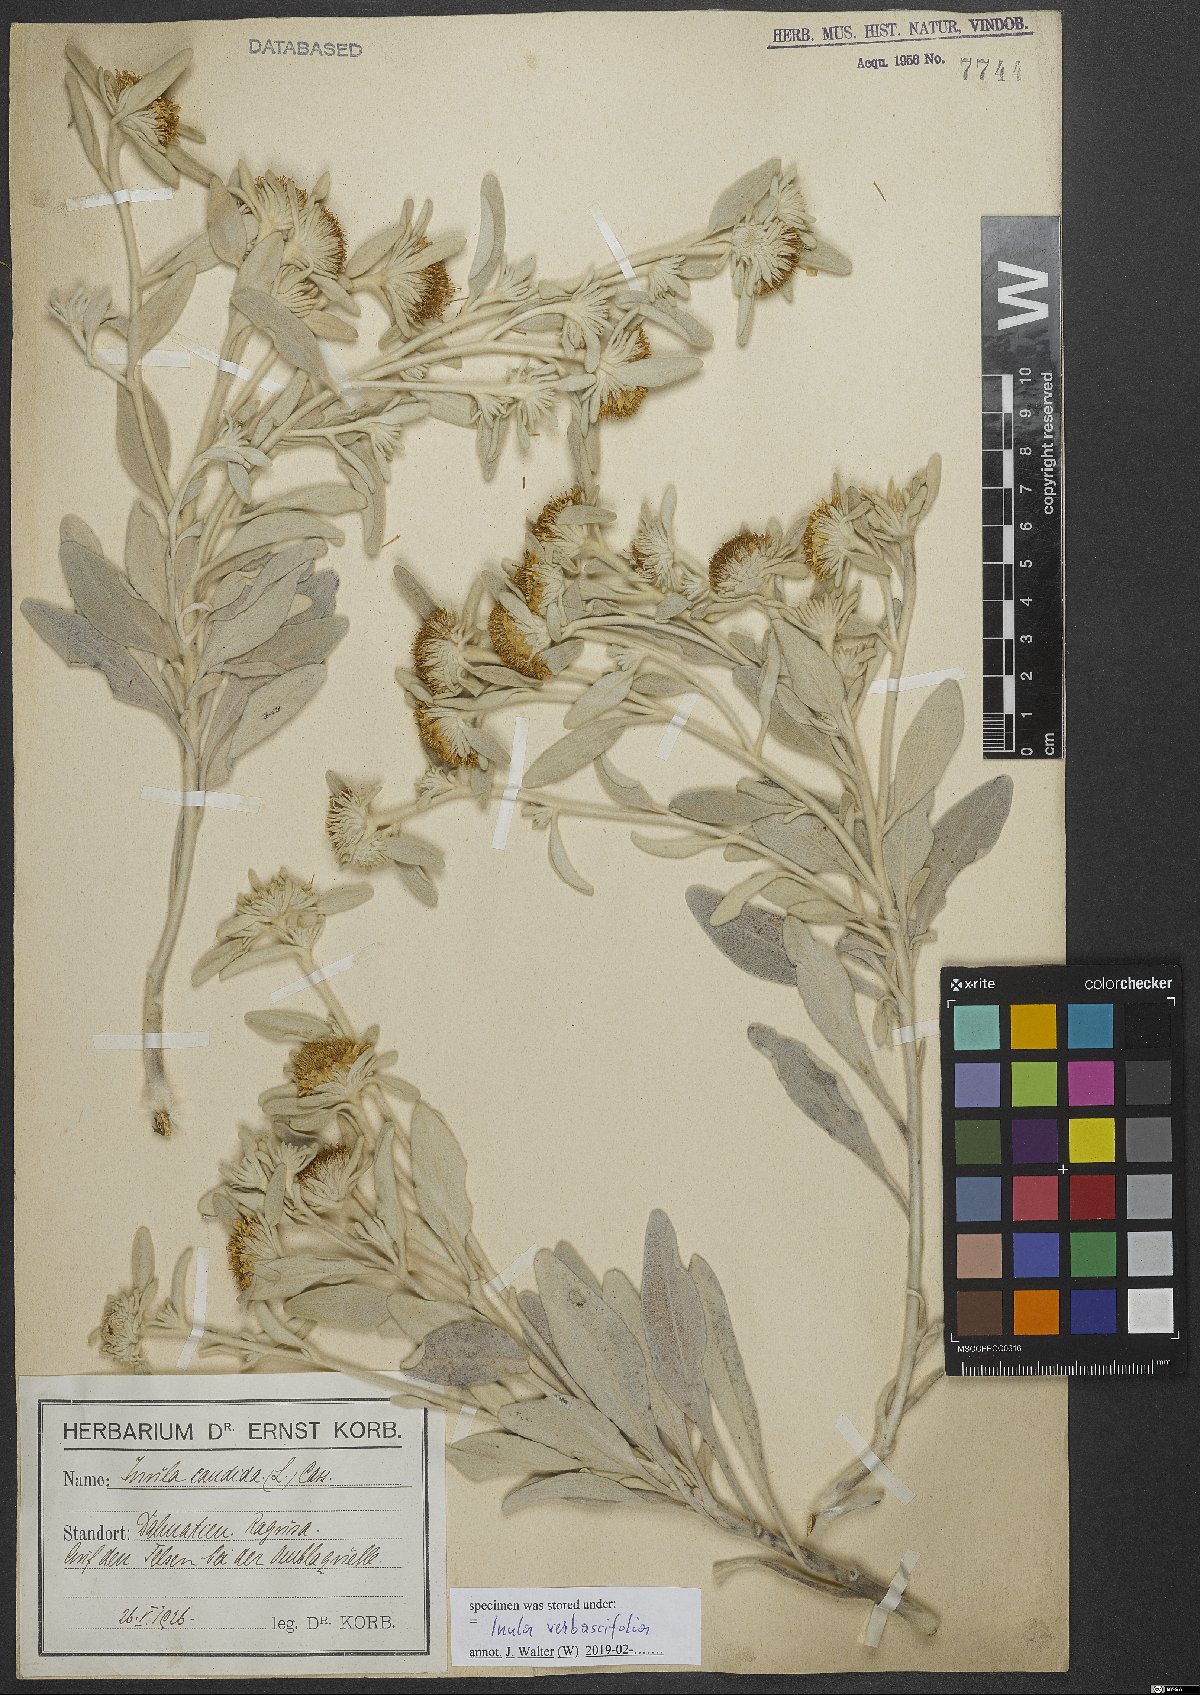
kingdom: Plantae
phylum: Tracheophyta
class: Magnoliopsida
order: Asterales
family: Asteraceae
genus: Pentanema
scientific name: Pentanema verbascifolium
